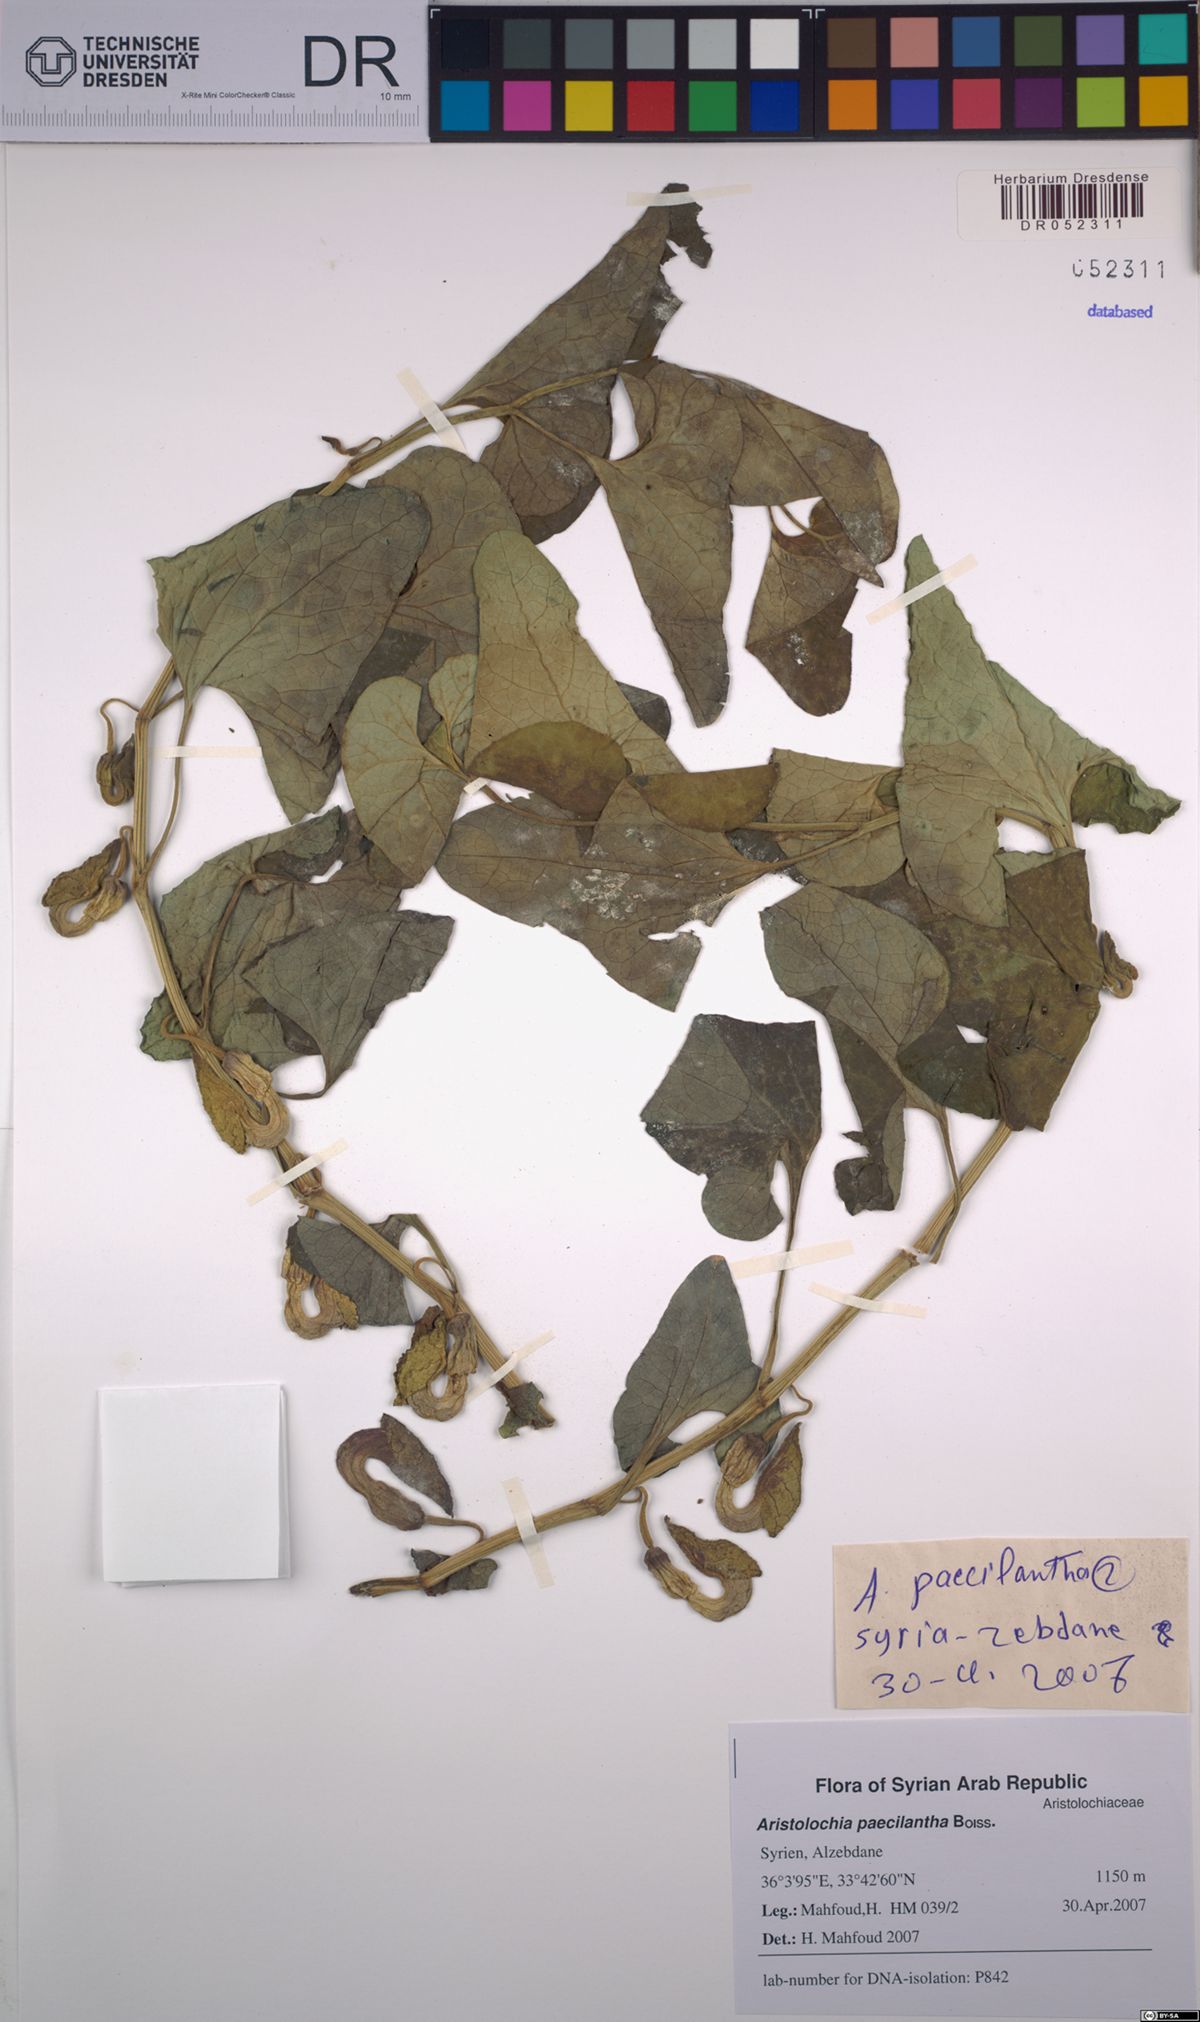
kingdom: Plantae
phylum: Tracheophyta
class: Magnoliopsida
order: Piperales
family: Aristolochiaceae
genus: Aristolochia
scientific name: Aristolochia paecilantha
